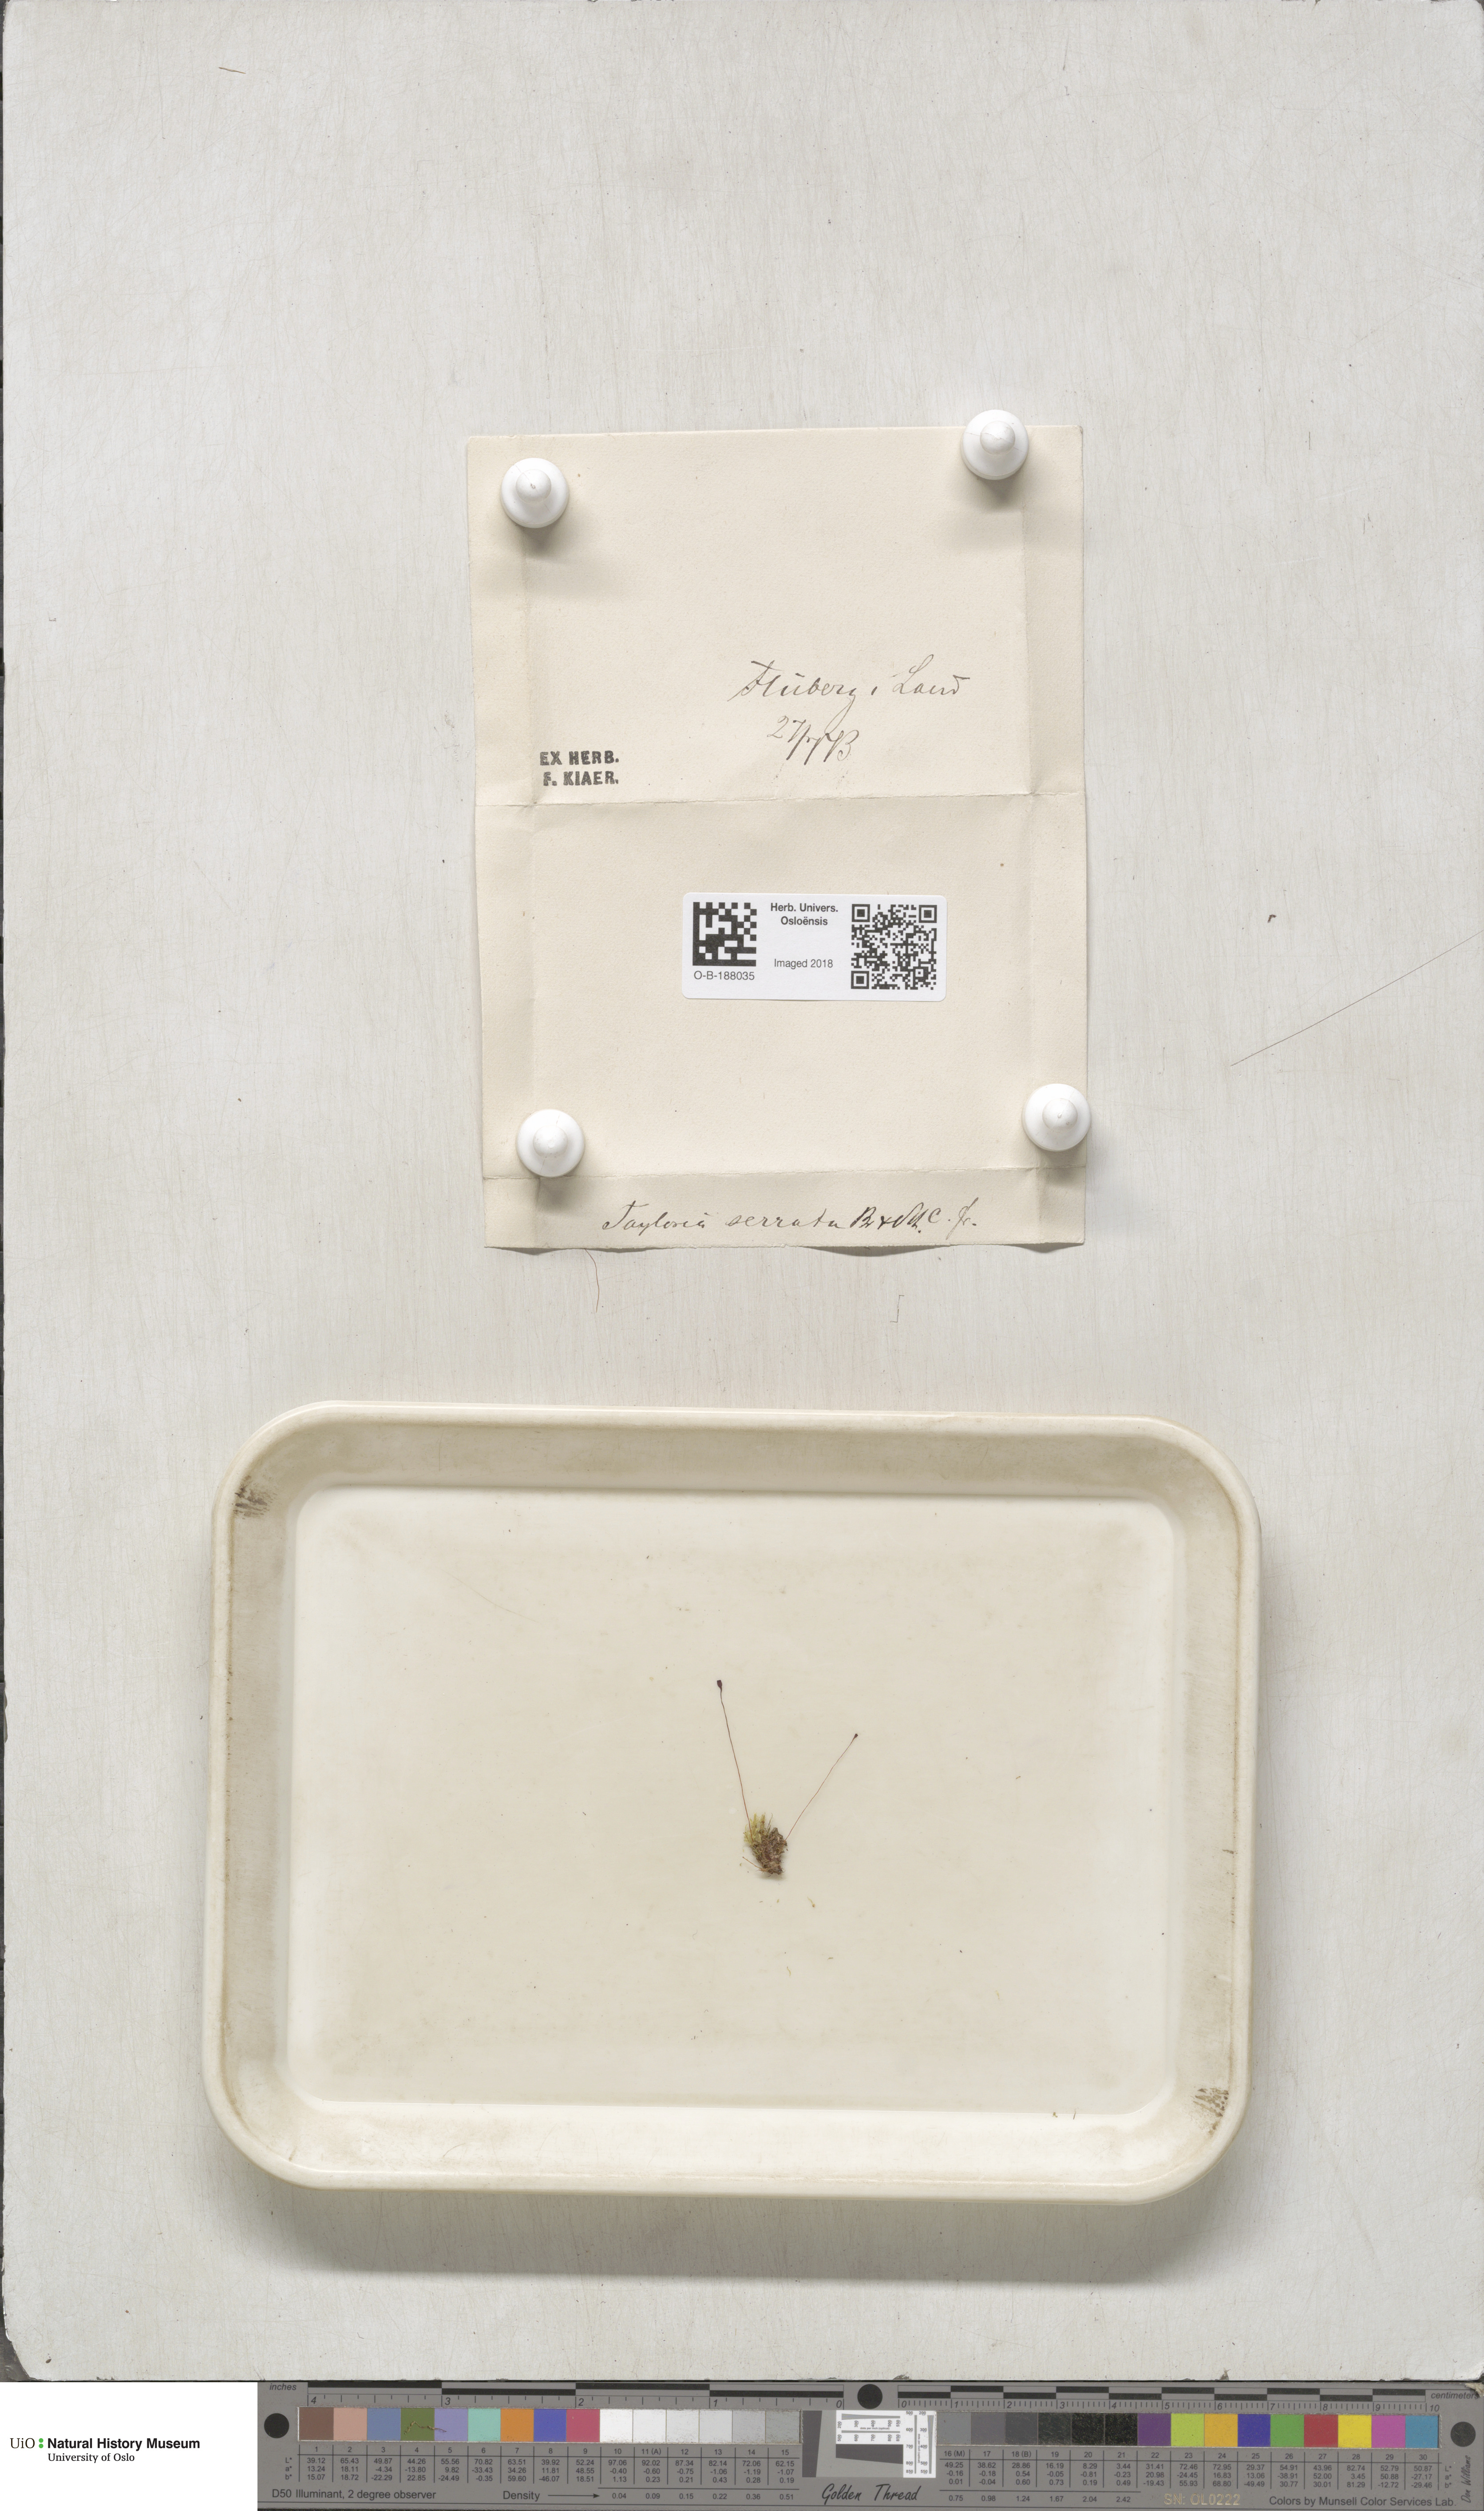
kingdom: Plantae
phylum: Bryophyta
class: Bryopsida
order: Splachnales
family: Splachnaceae
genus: Tayloria
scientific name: Tayloria tenuis
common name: Slender gland-moss
